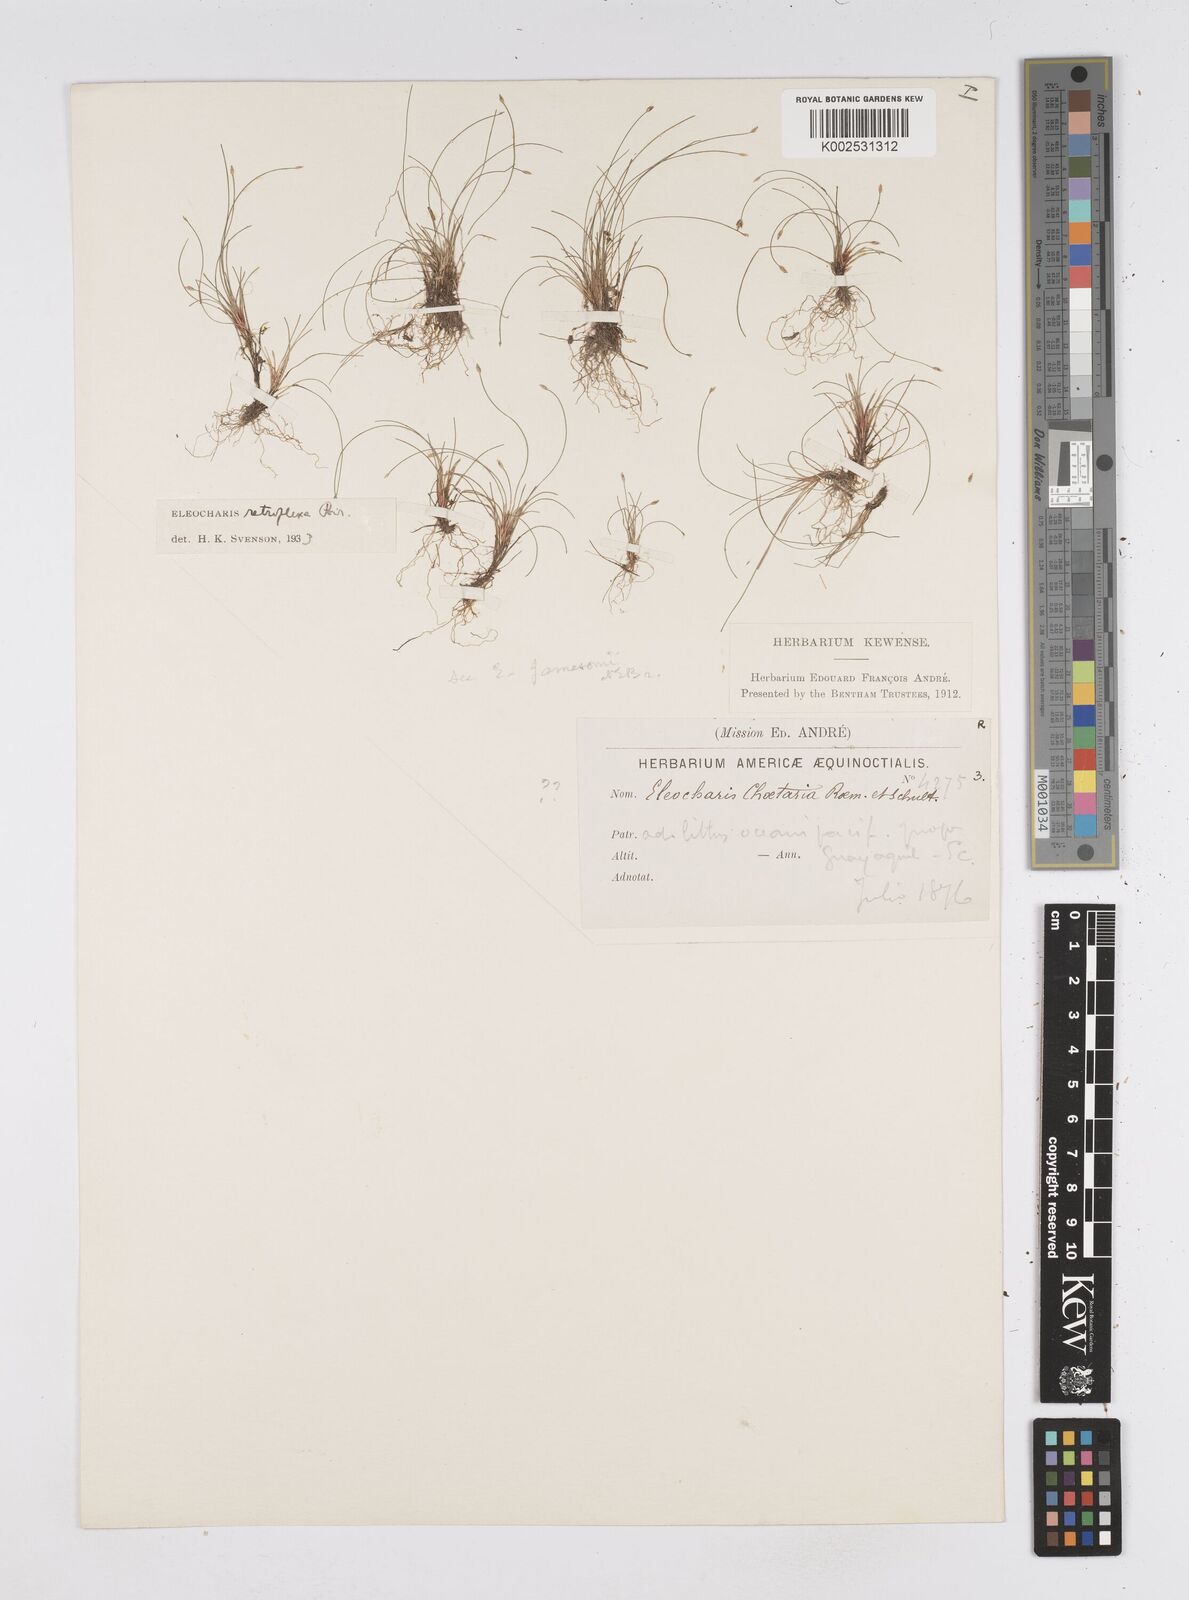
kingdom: Plantae
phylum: Tracheophyta
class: Liliopsida
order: Poales
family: Cyperaceae
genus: Eleocharis
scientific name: Eleocharis retroflexa
